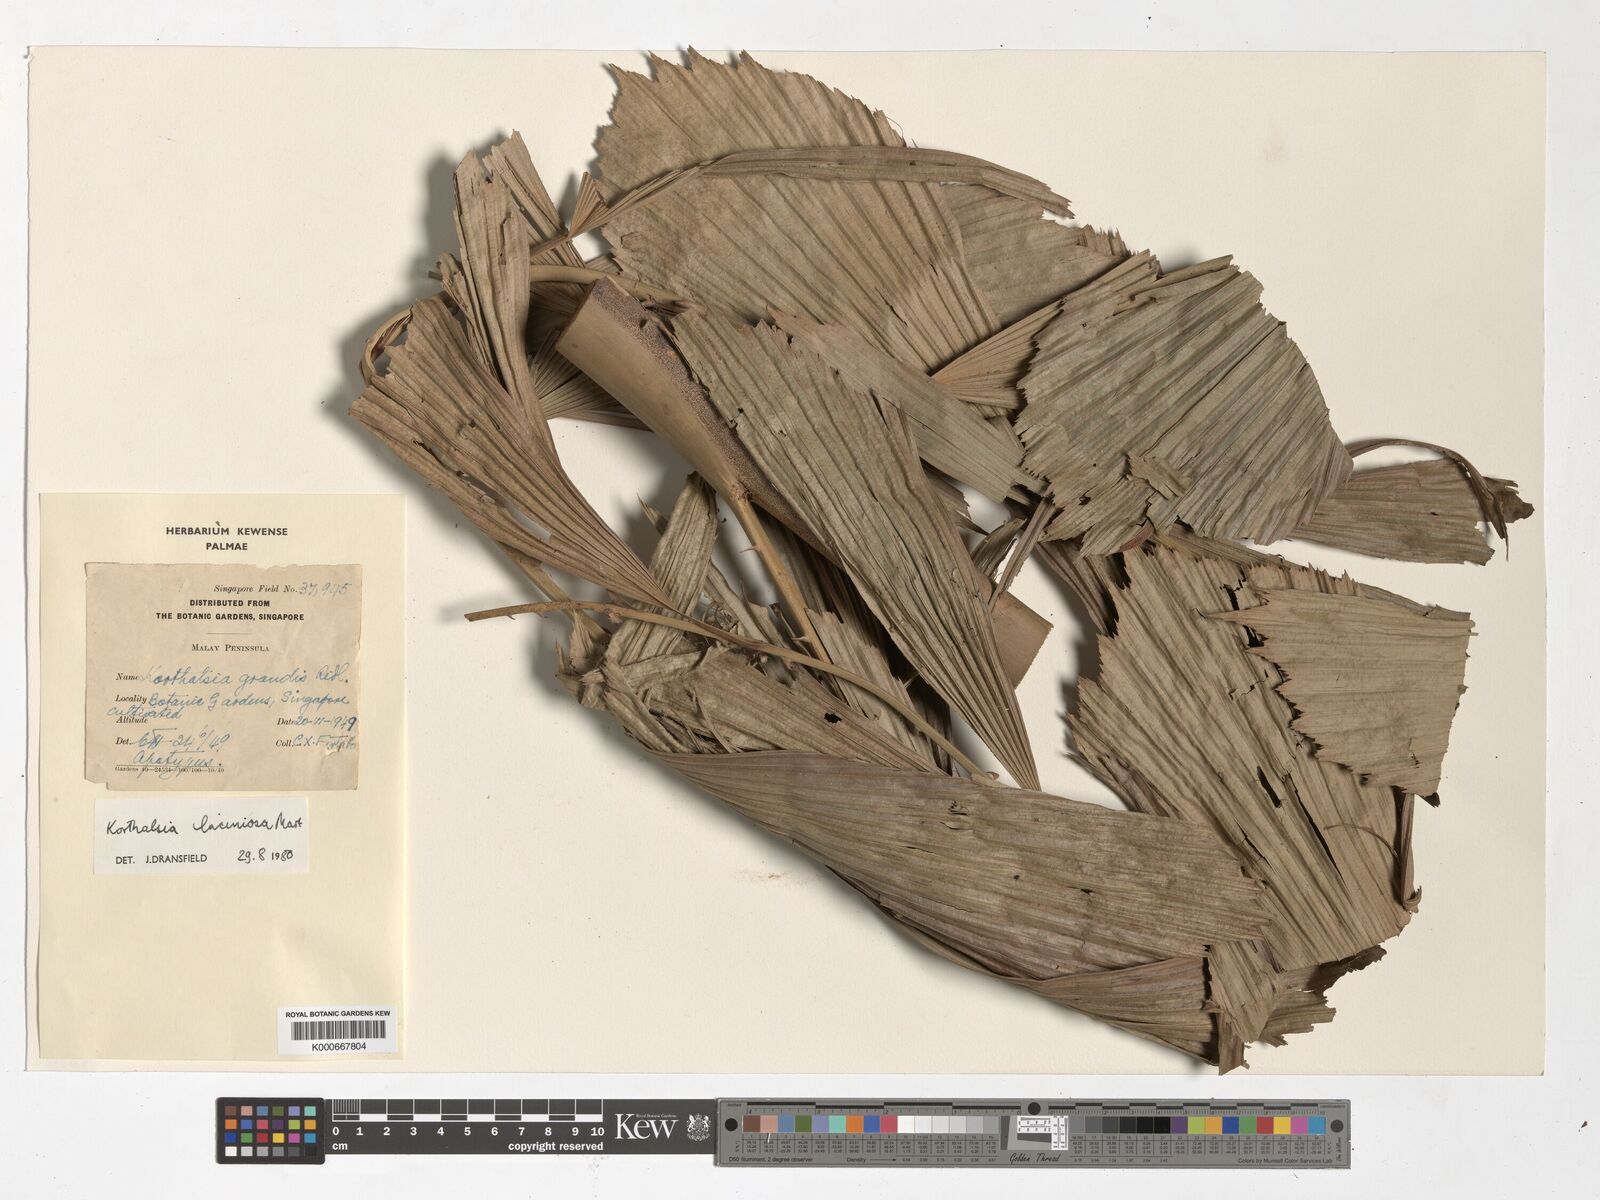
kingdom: Plantae
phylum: Tracheophyta
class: Liliopsida
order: Arecales
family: Arecaceae
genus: Korthalsia
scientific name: Korthalsia laciniosa
